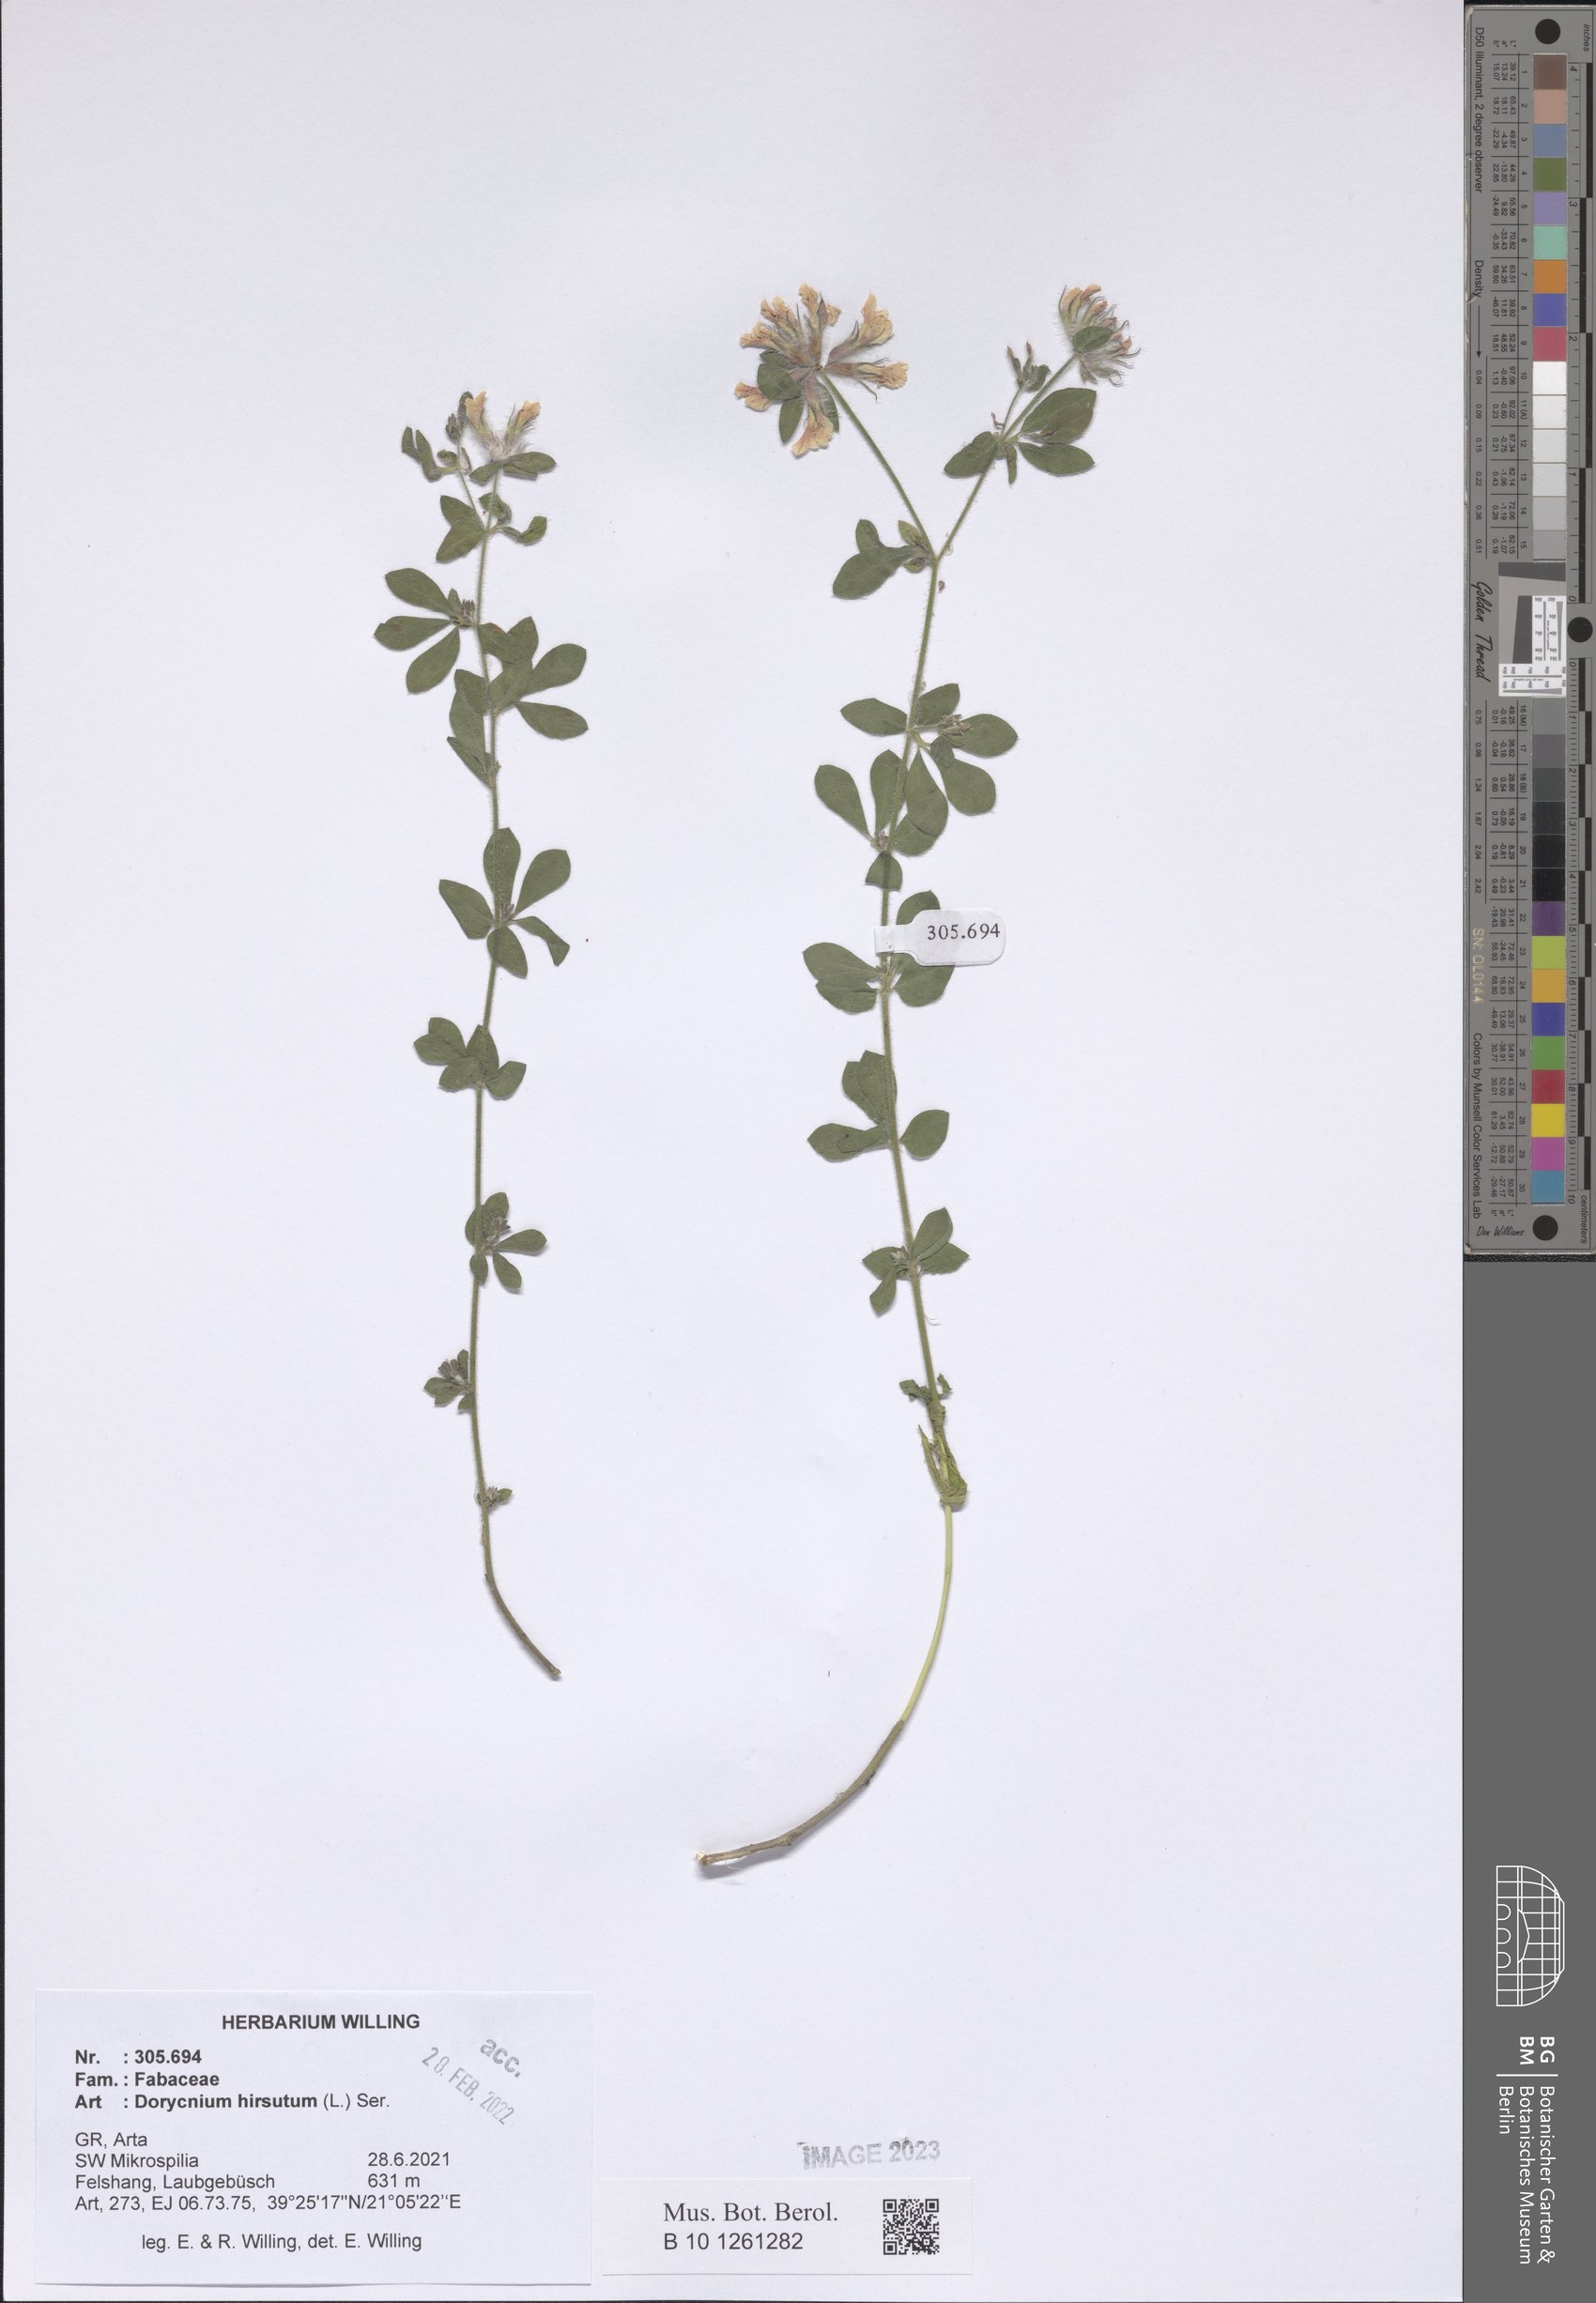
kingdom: Plantae
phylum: Tracheophyta
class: Magnoliopsida
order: Fabales
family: Fabaceae
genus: Lotus
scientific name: Lotus hirsutus
